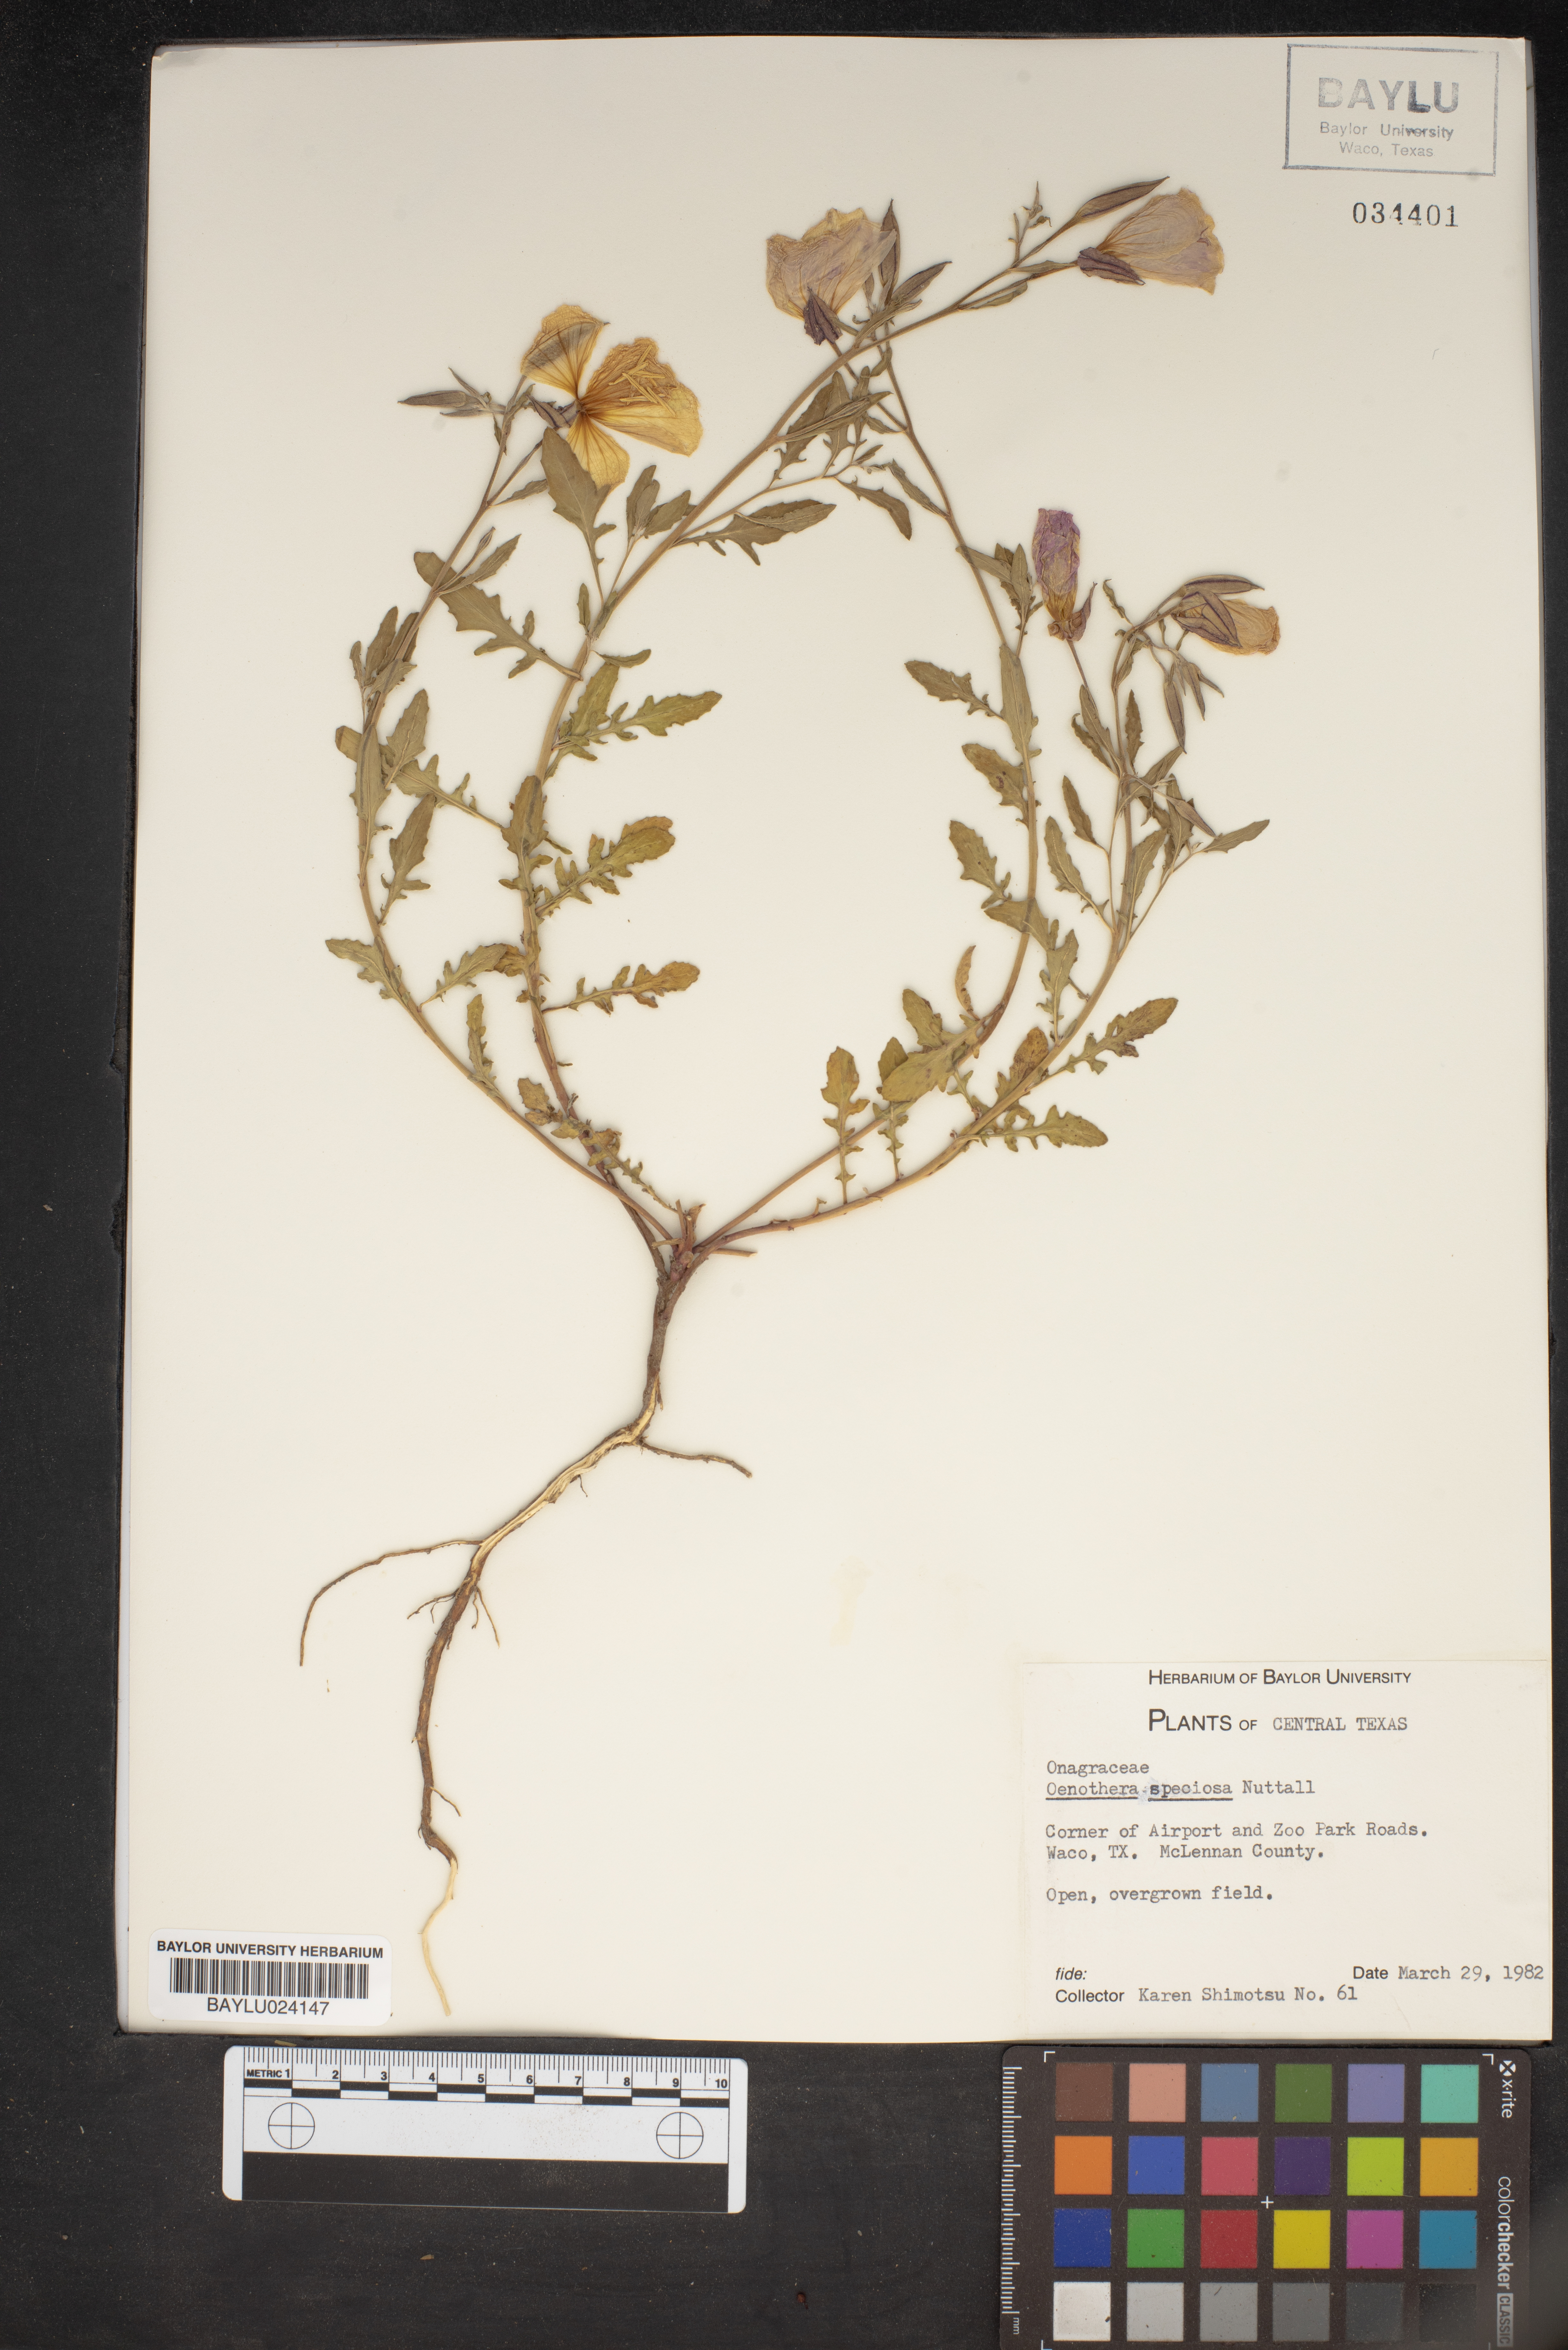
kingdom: Plantae
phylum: Tracheophyta
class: Magnoliopsida
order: Myrtales
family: Onagraceae
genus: Oenothera
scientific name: Oenothera speciosa
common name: White evening-primrose
